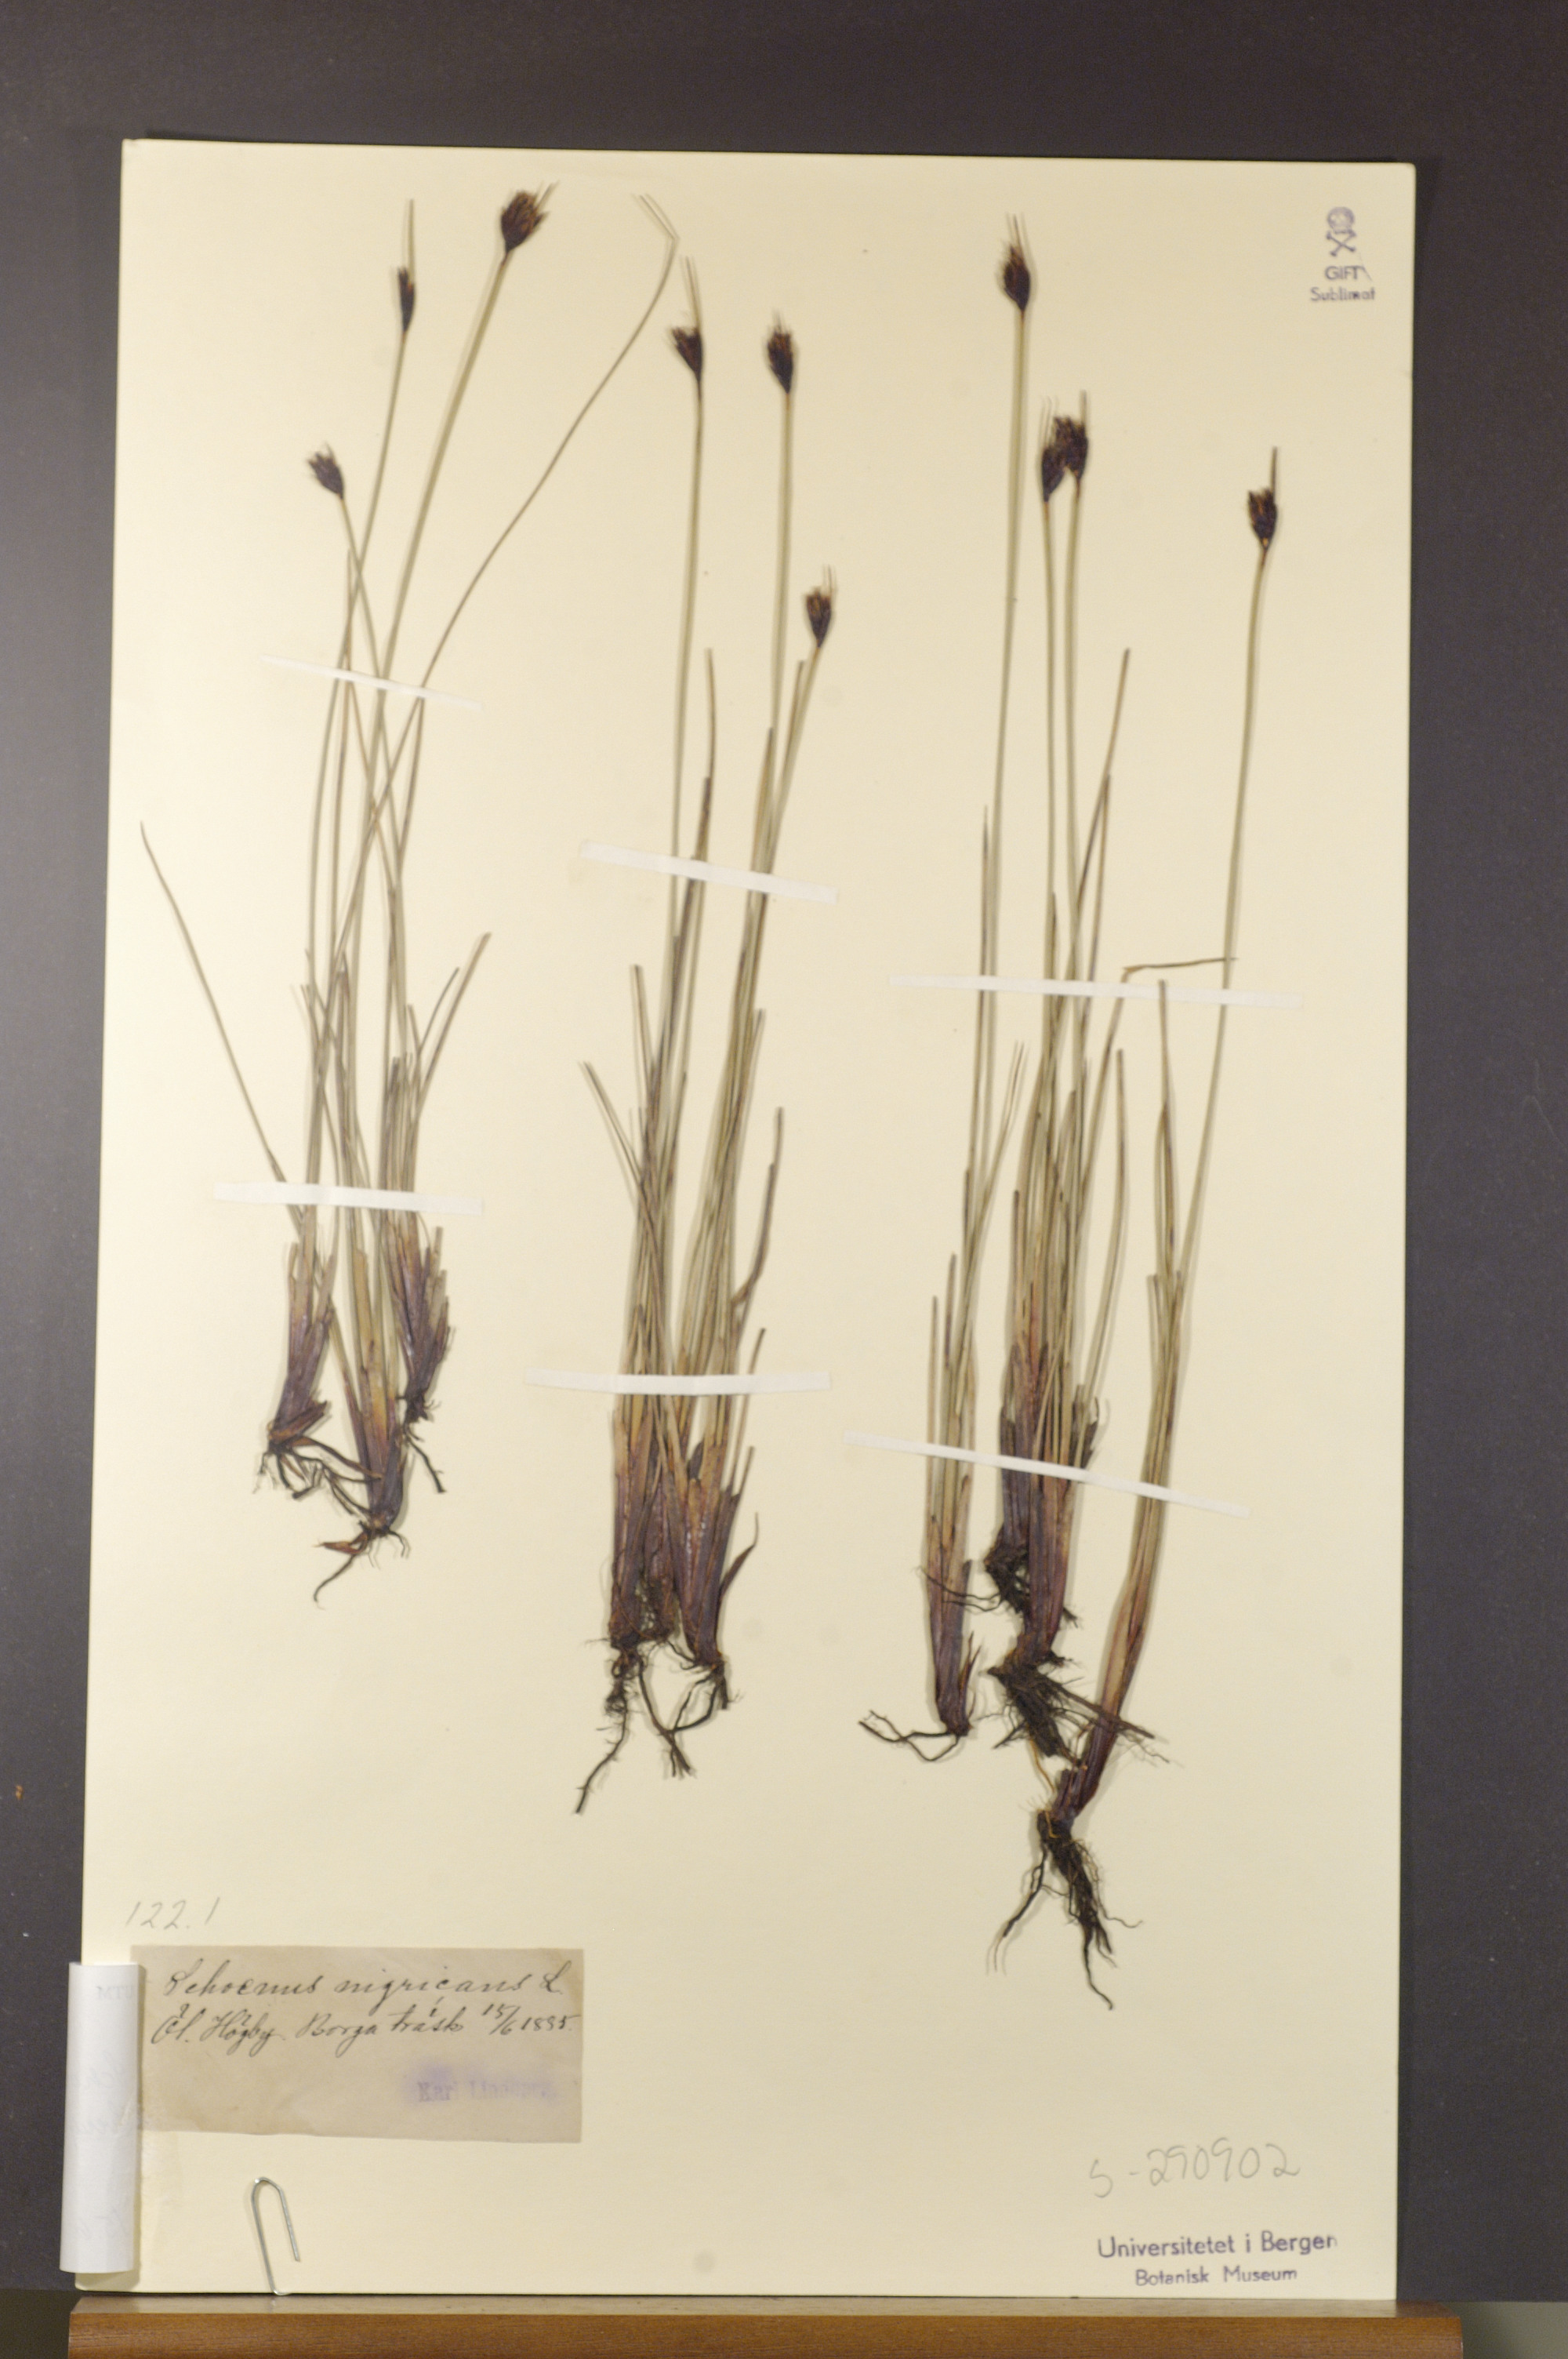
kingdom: Plantae
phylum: Tracheophyta
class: Liliopsida
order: Poales
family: Cyperaceae
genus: Schoenus
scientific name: Schoenus nigricans
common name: Black bog-rush
